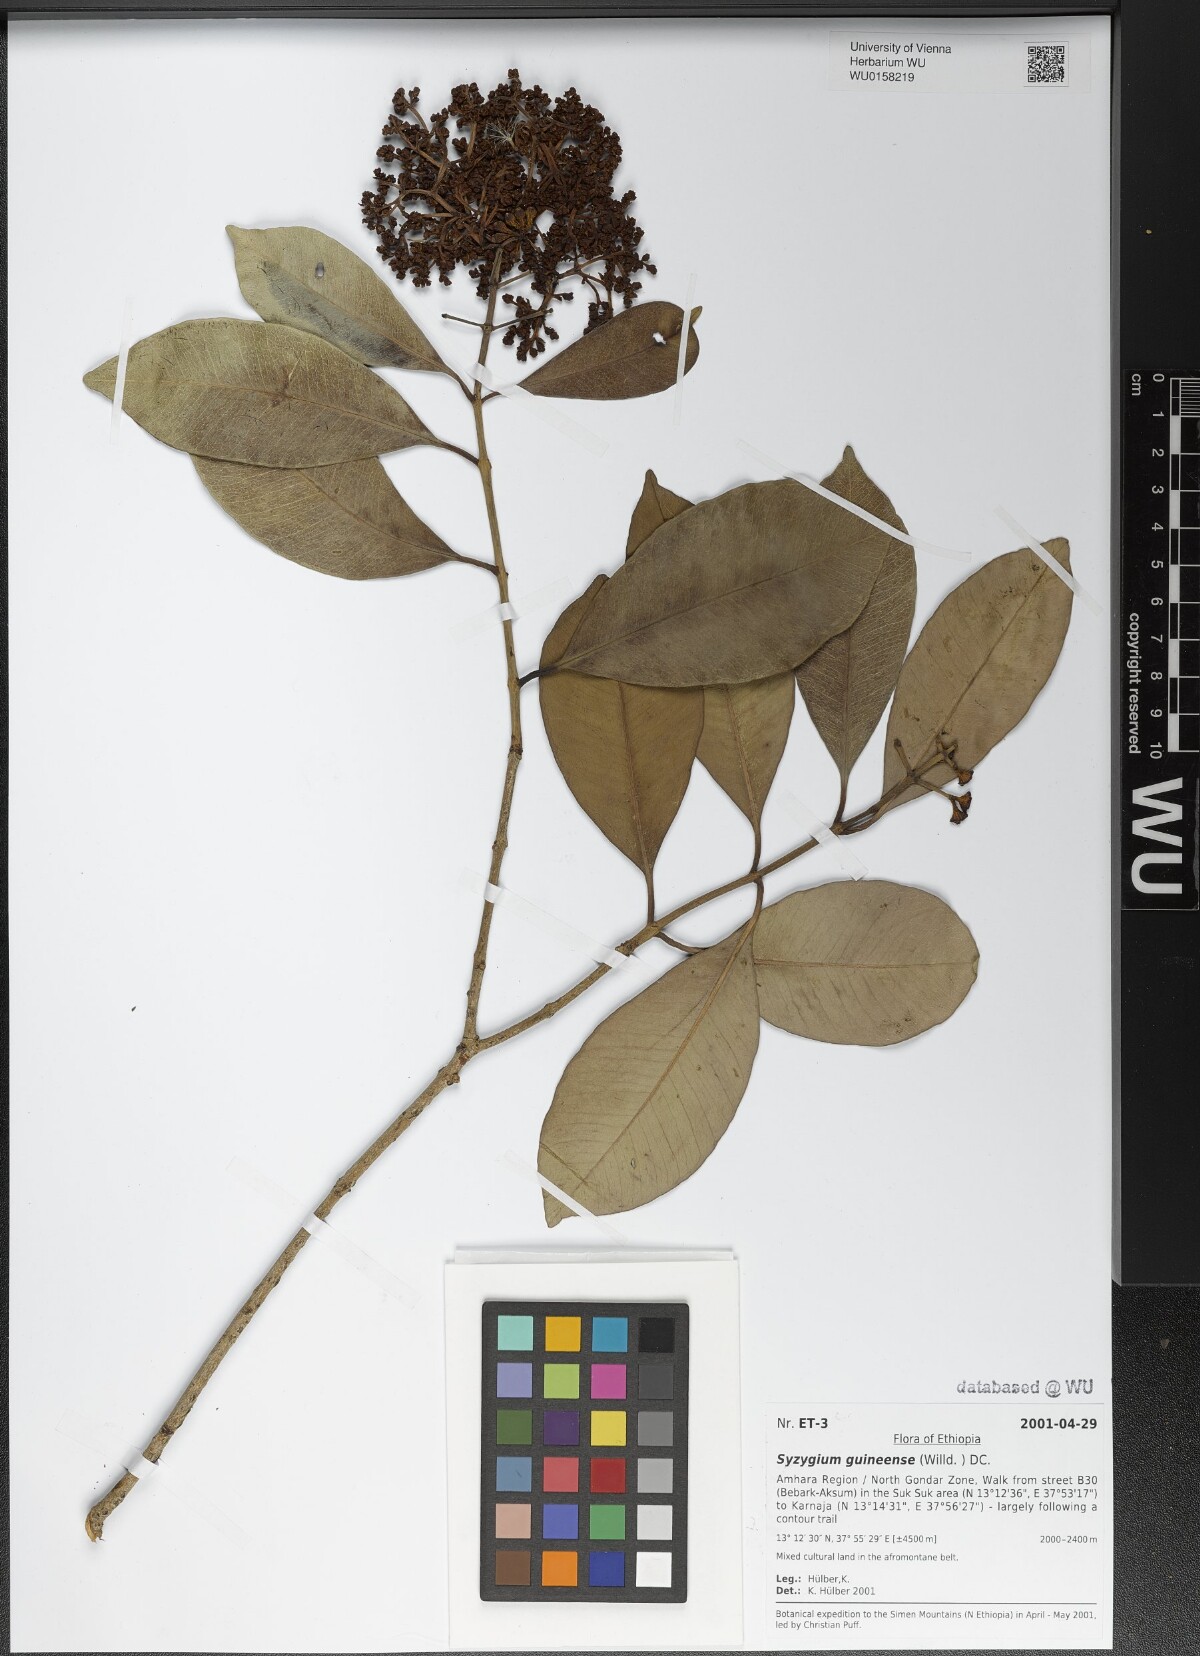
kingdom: Plantae
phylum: Tracheophyta
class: Magnoliopsida
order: Myrtales
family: Myrtaceae
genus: Syzygium
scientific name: Syzygium guineense
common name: Water-pear
